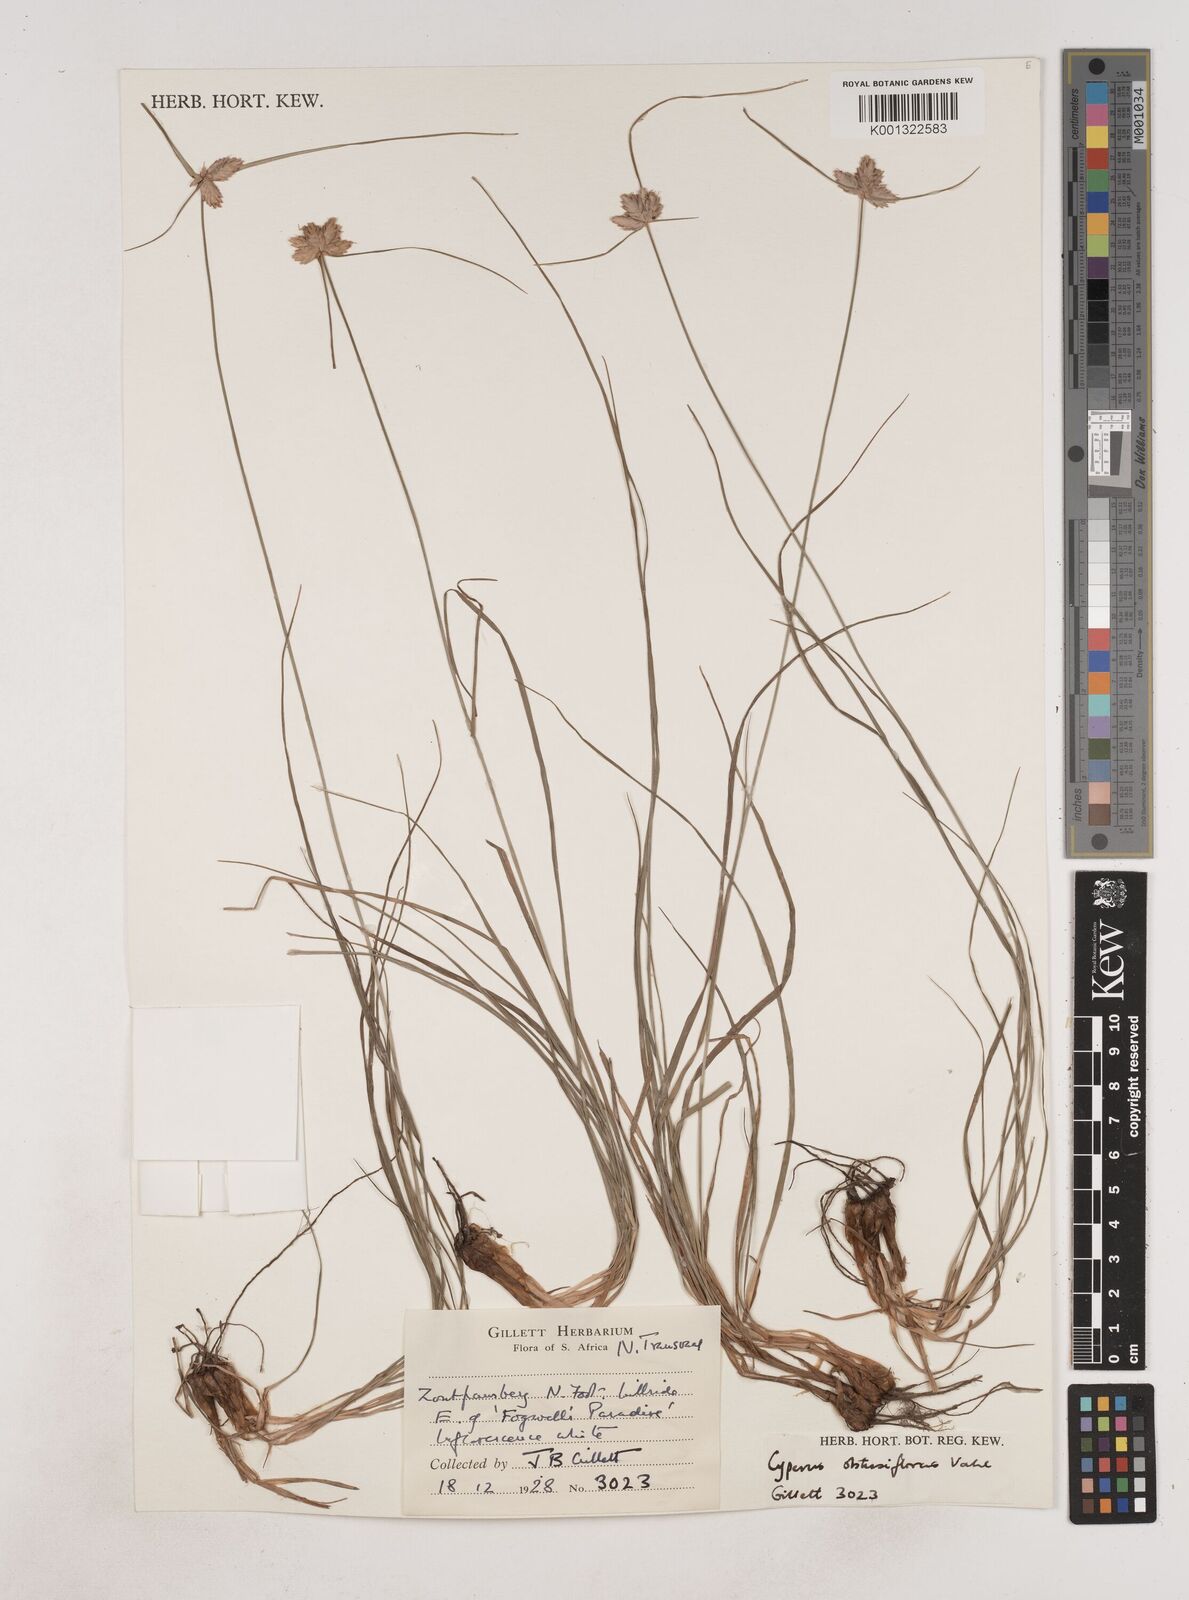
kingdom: Plantae
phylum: Tracheophyta
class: Liliopsida
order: Poales
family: Cyperaceae
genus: Cyperus
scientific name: Cyperus niveus
